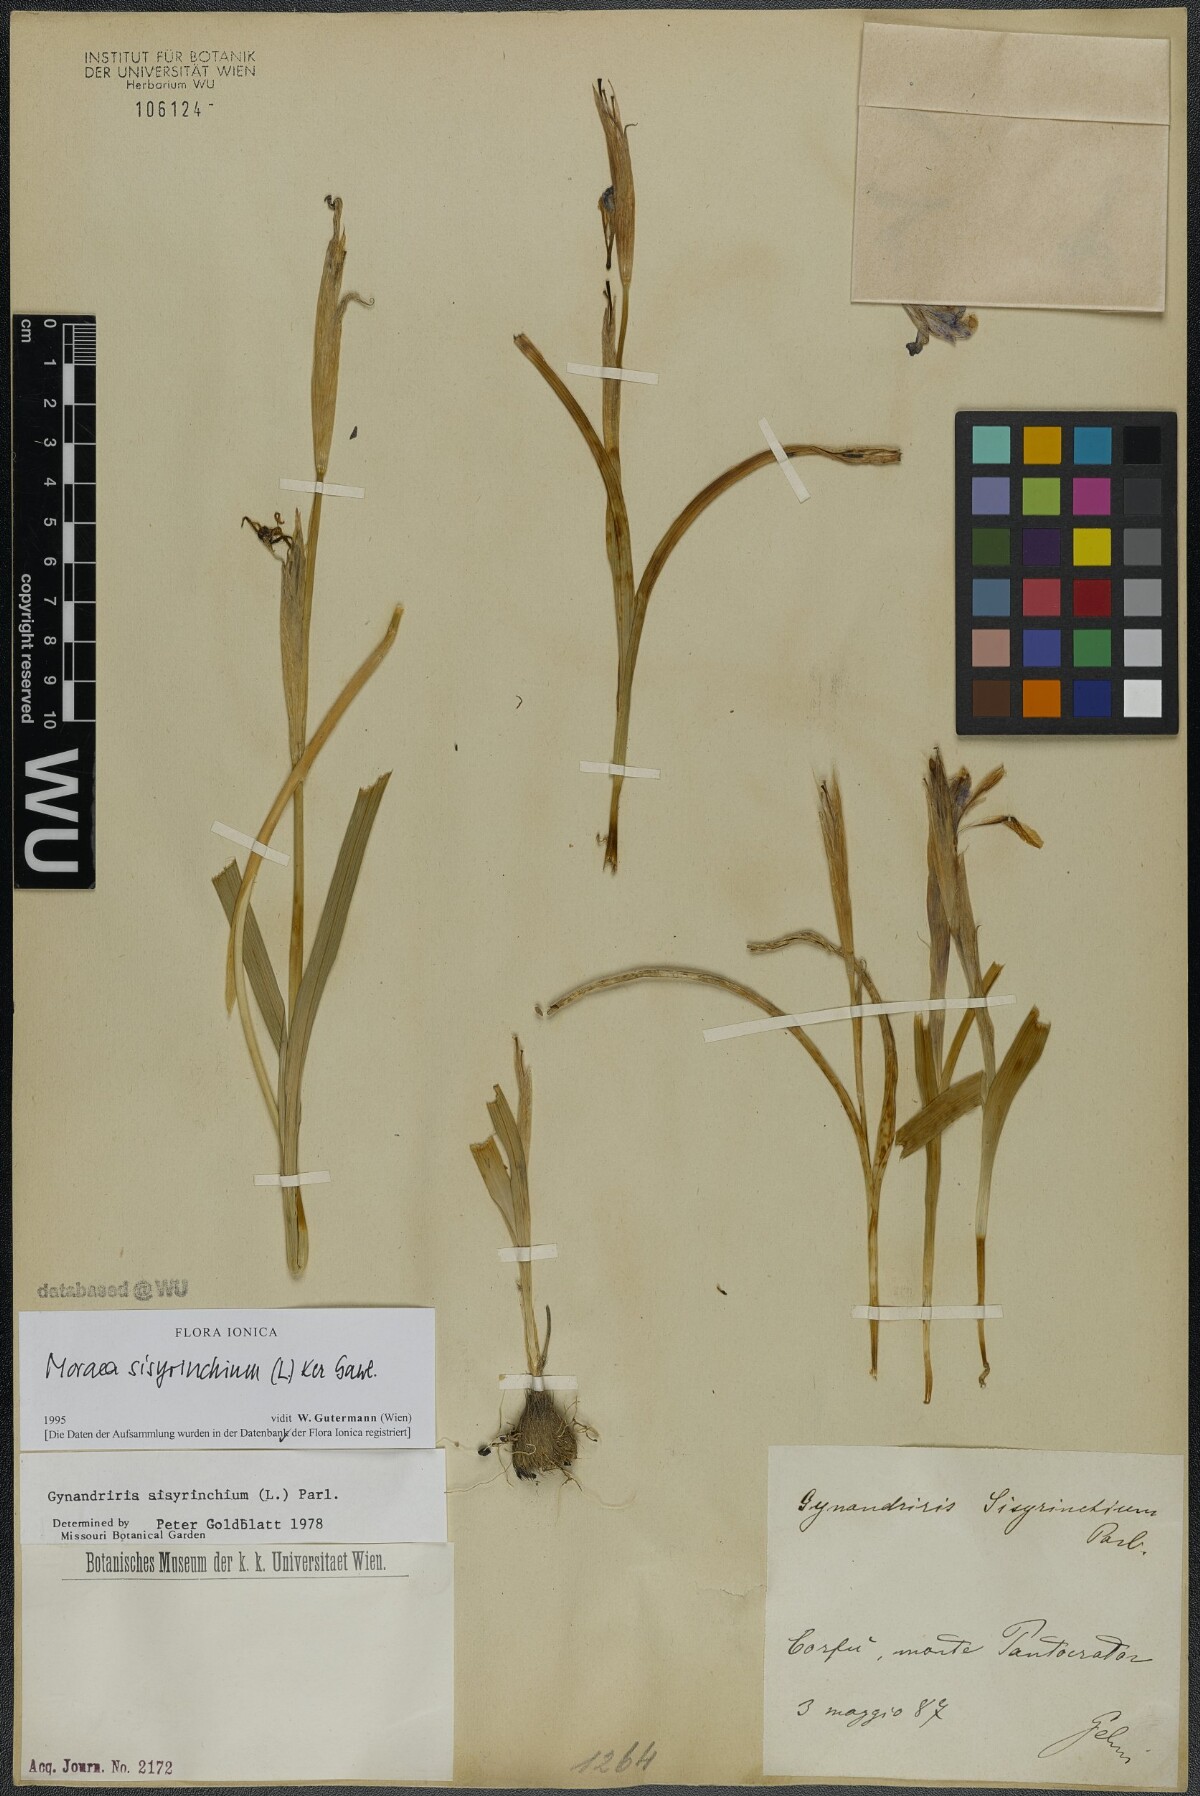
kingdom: Plantae
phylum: Tracheophyta
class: Liliopsida
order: Asparagales
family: Iridaceae
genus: Moraea
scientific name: Moraea sisyrinchium
